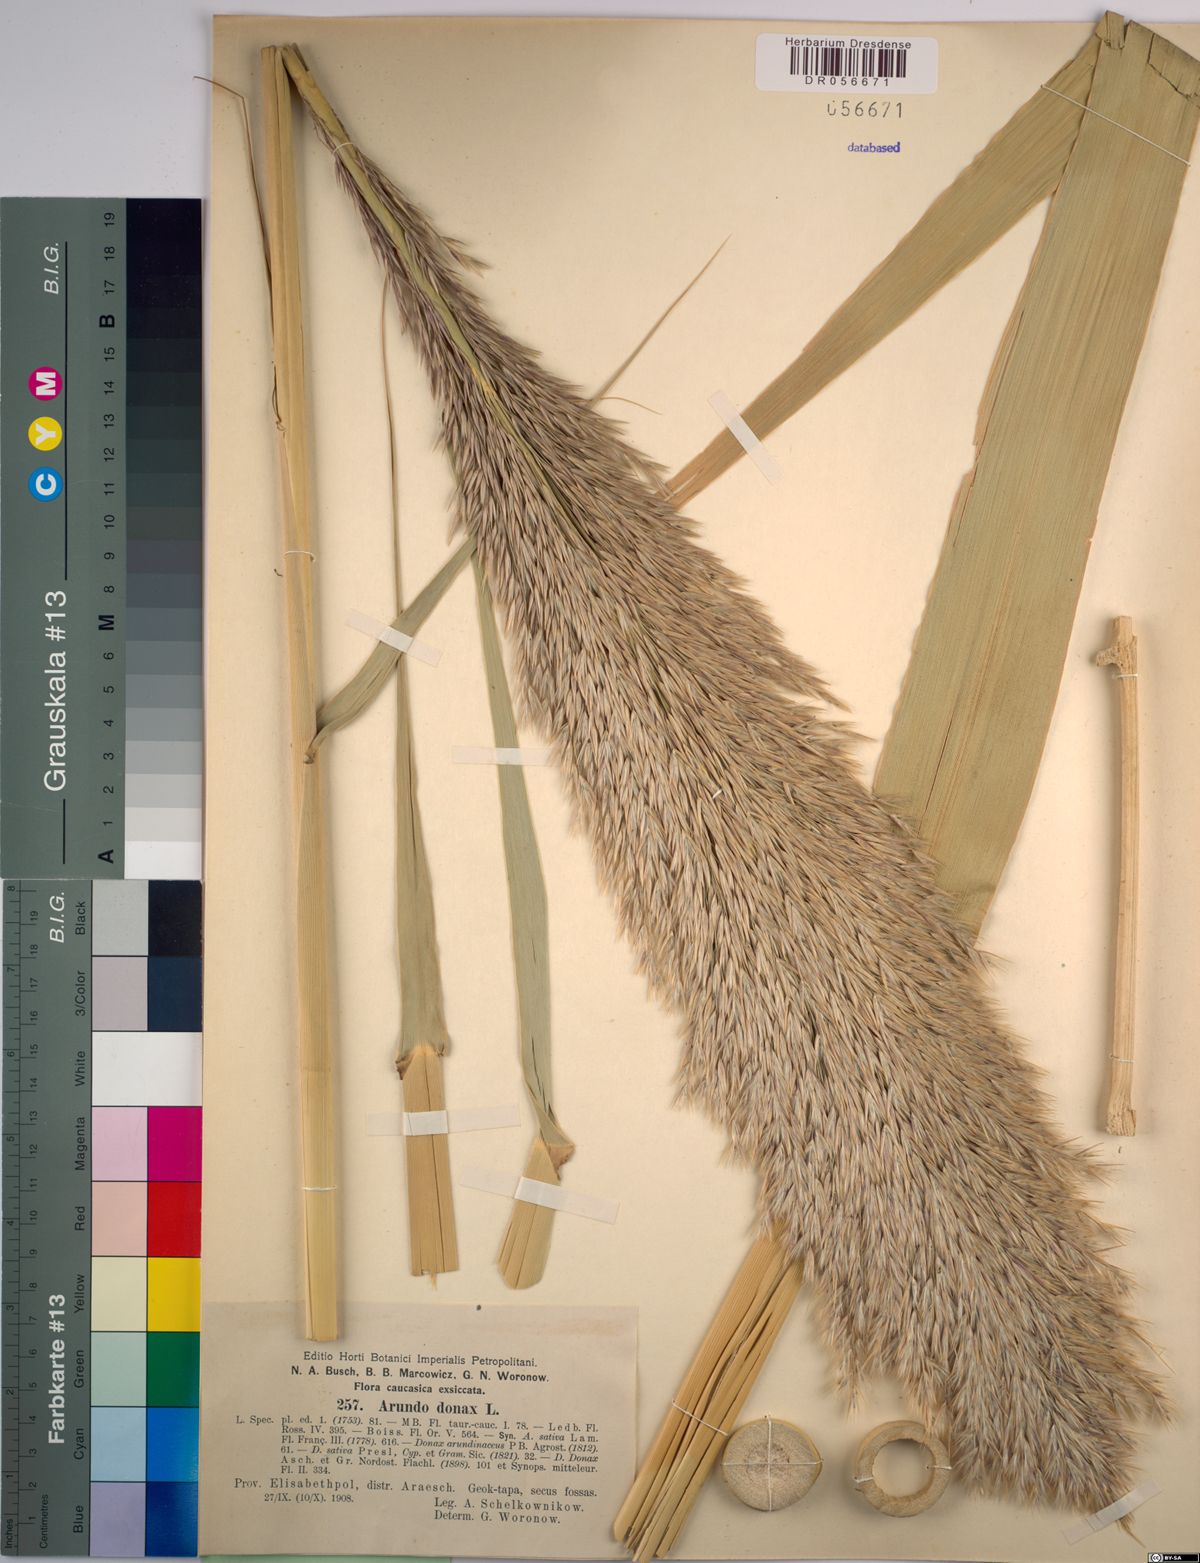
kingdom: Plantae
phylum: Tracheophyta
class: Liliopsida
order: Poales
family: Poaceae
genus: Arundo
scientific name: Arundo donax
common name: Giant reed
